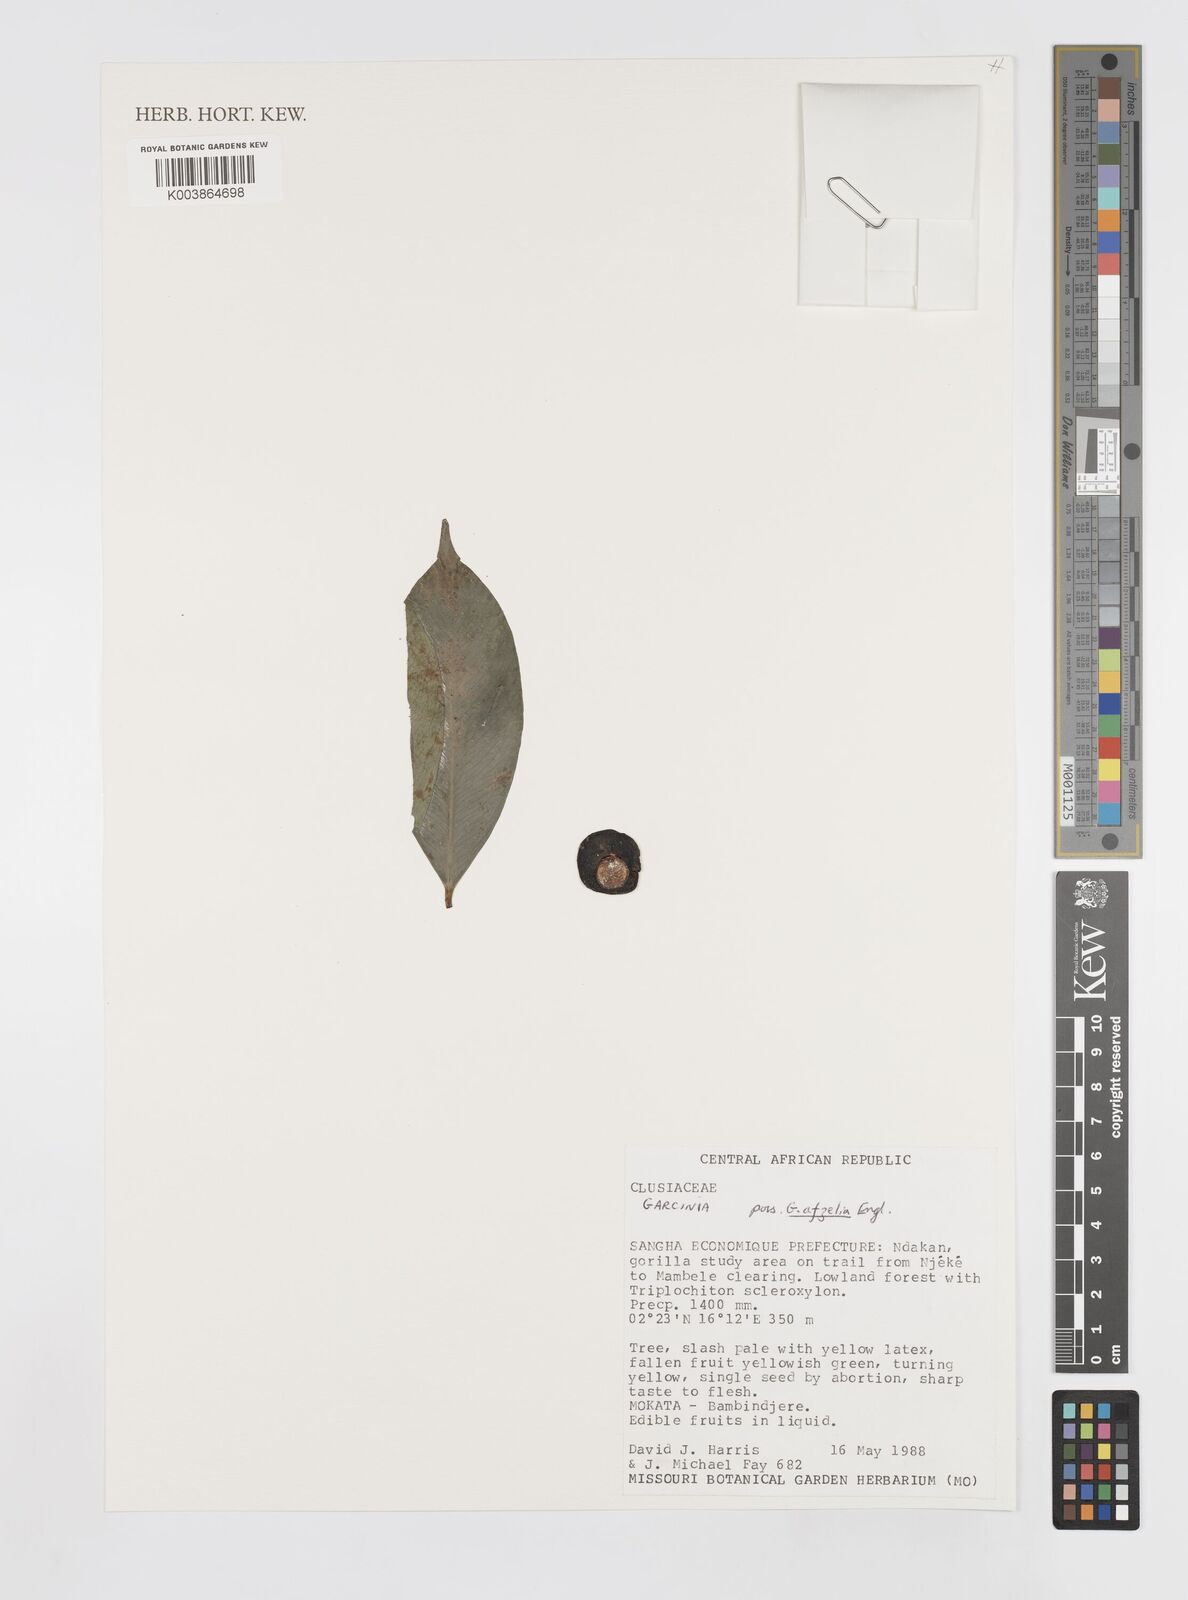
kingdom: Plantae
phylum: Tracheophyta
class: Magnoliopsida
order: Malpighiales
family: Clusiaceae
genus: Garcinia
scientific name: Garcinia afzelii
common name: Bitter-kola
